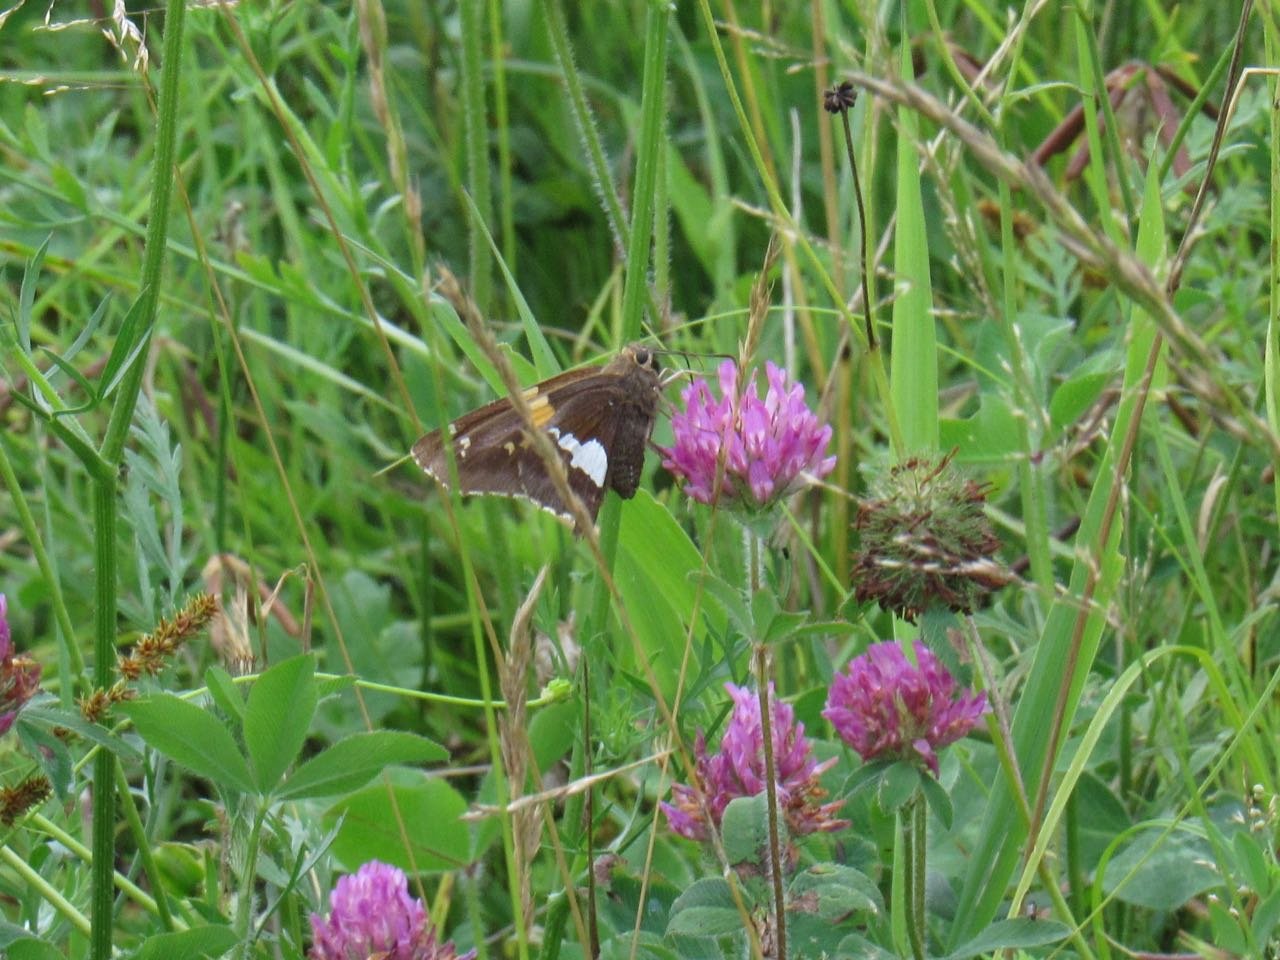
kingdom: Animalia
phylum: Arthropoda
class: Insecta
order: Lepidoptera
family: Hesperiidae
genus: Epargyreus
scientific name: Epargyreus clarus
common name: Silver-spotted Skipper
